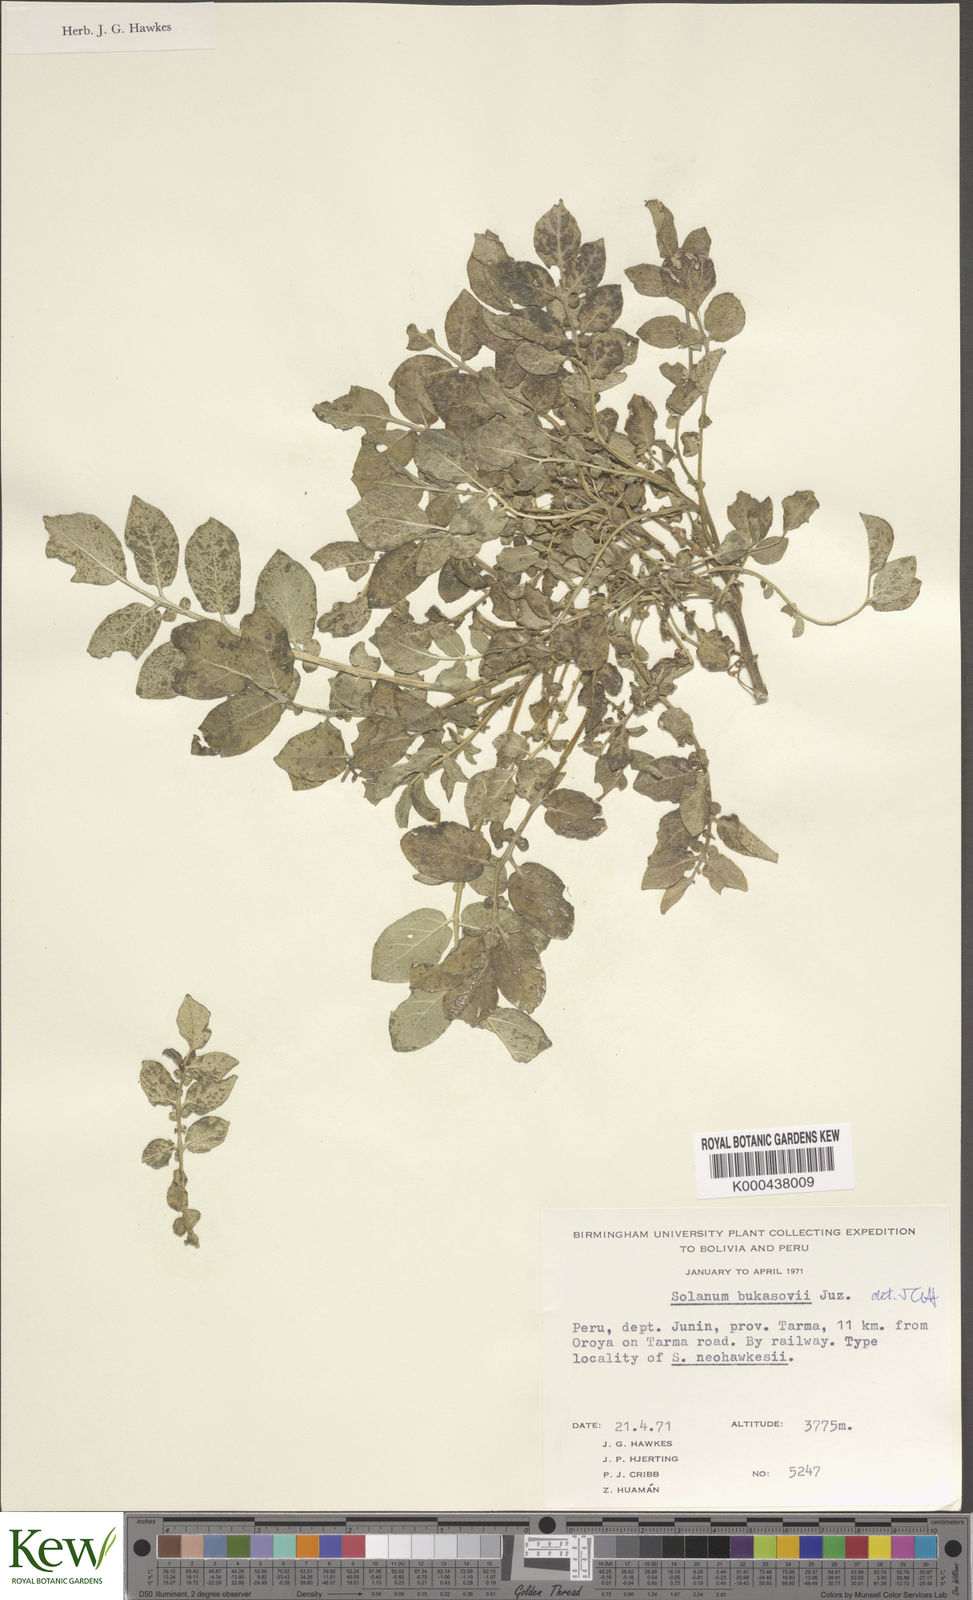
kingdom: Plantae
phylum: Tracheophyta
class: Magnoliopsida
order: Solanales
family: Solanaceae
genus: Solanum
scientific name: Solanum candolleanum
